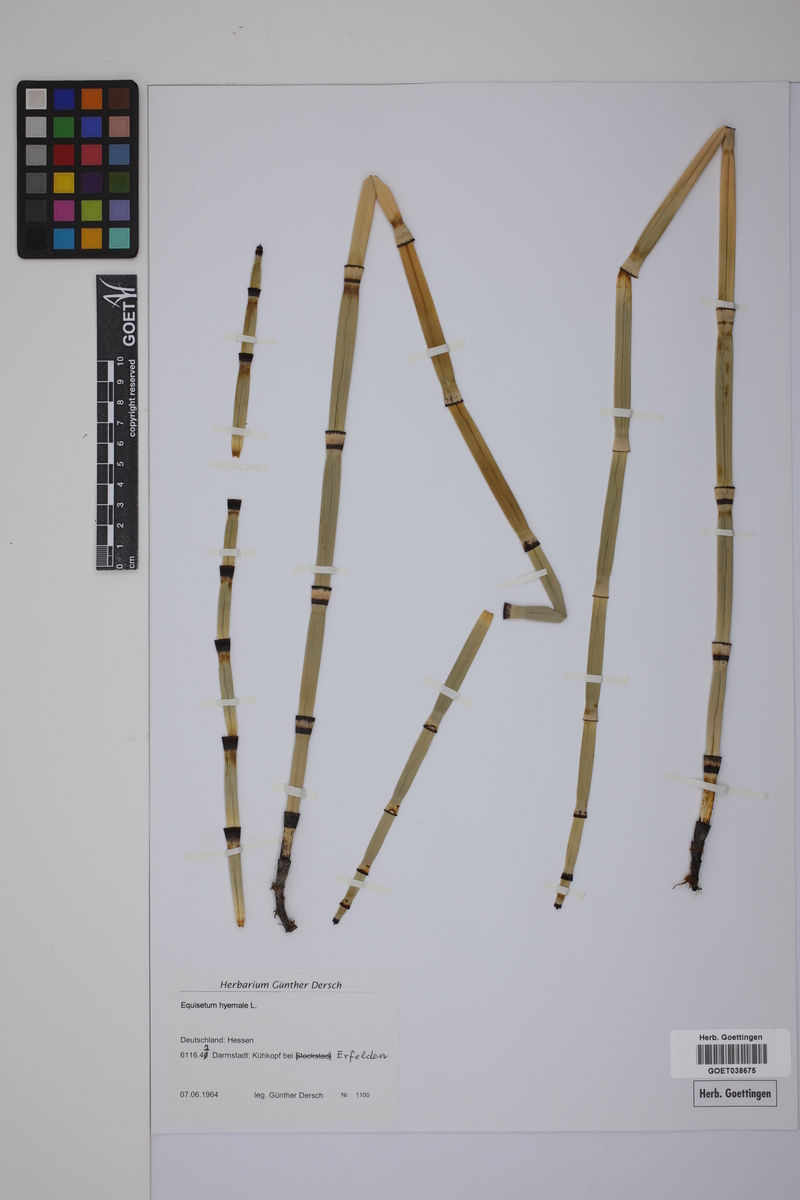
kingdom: Plantae
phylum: Tracheophyta
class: Polypodiopsida
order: Equisetales
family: Equisetaceae
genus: Equisetum
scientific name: Equisetum hyemale
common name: Rough horsetail
